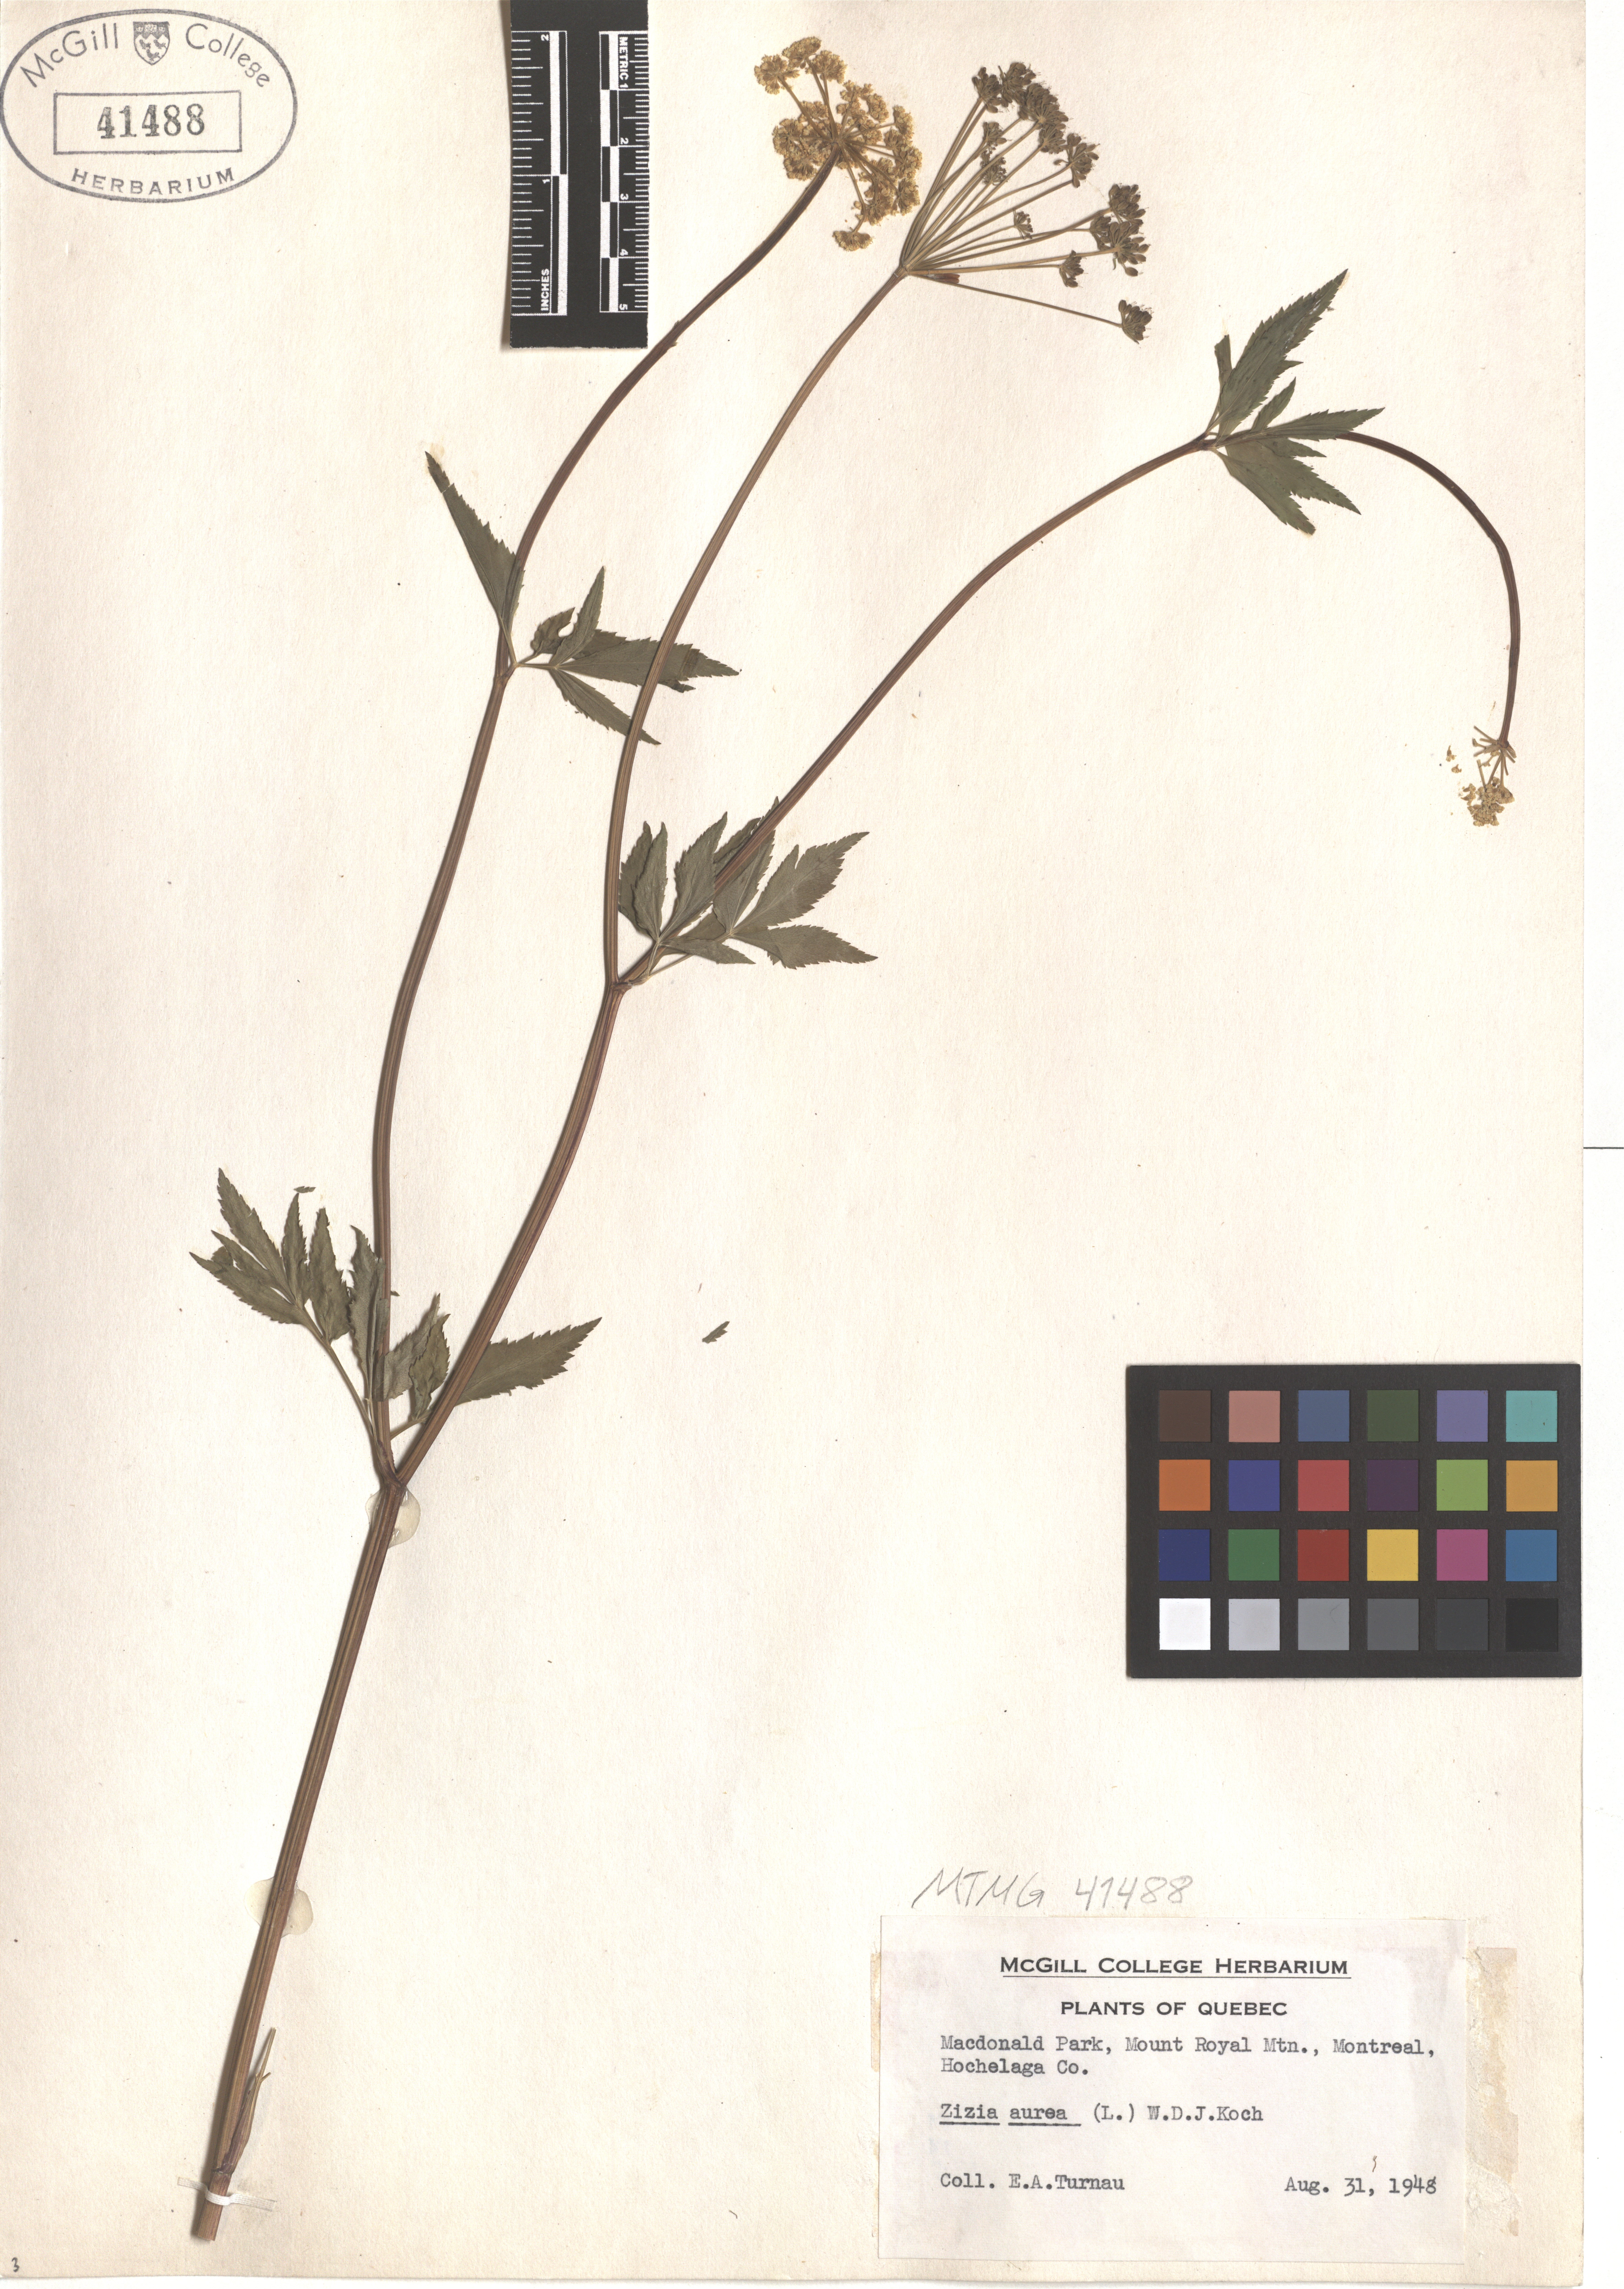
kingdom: Plantae
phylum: Tracheophyta
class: Magnoliopsida
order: Apiales
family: Apiaceae
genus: Zizia
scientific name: Zizia aurea
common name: Golden alexanders
